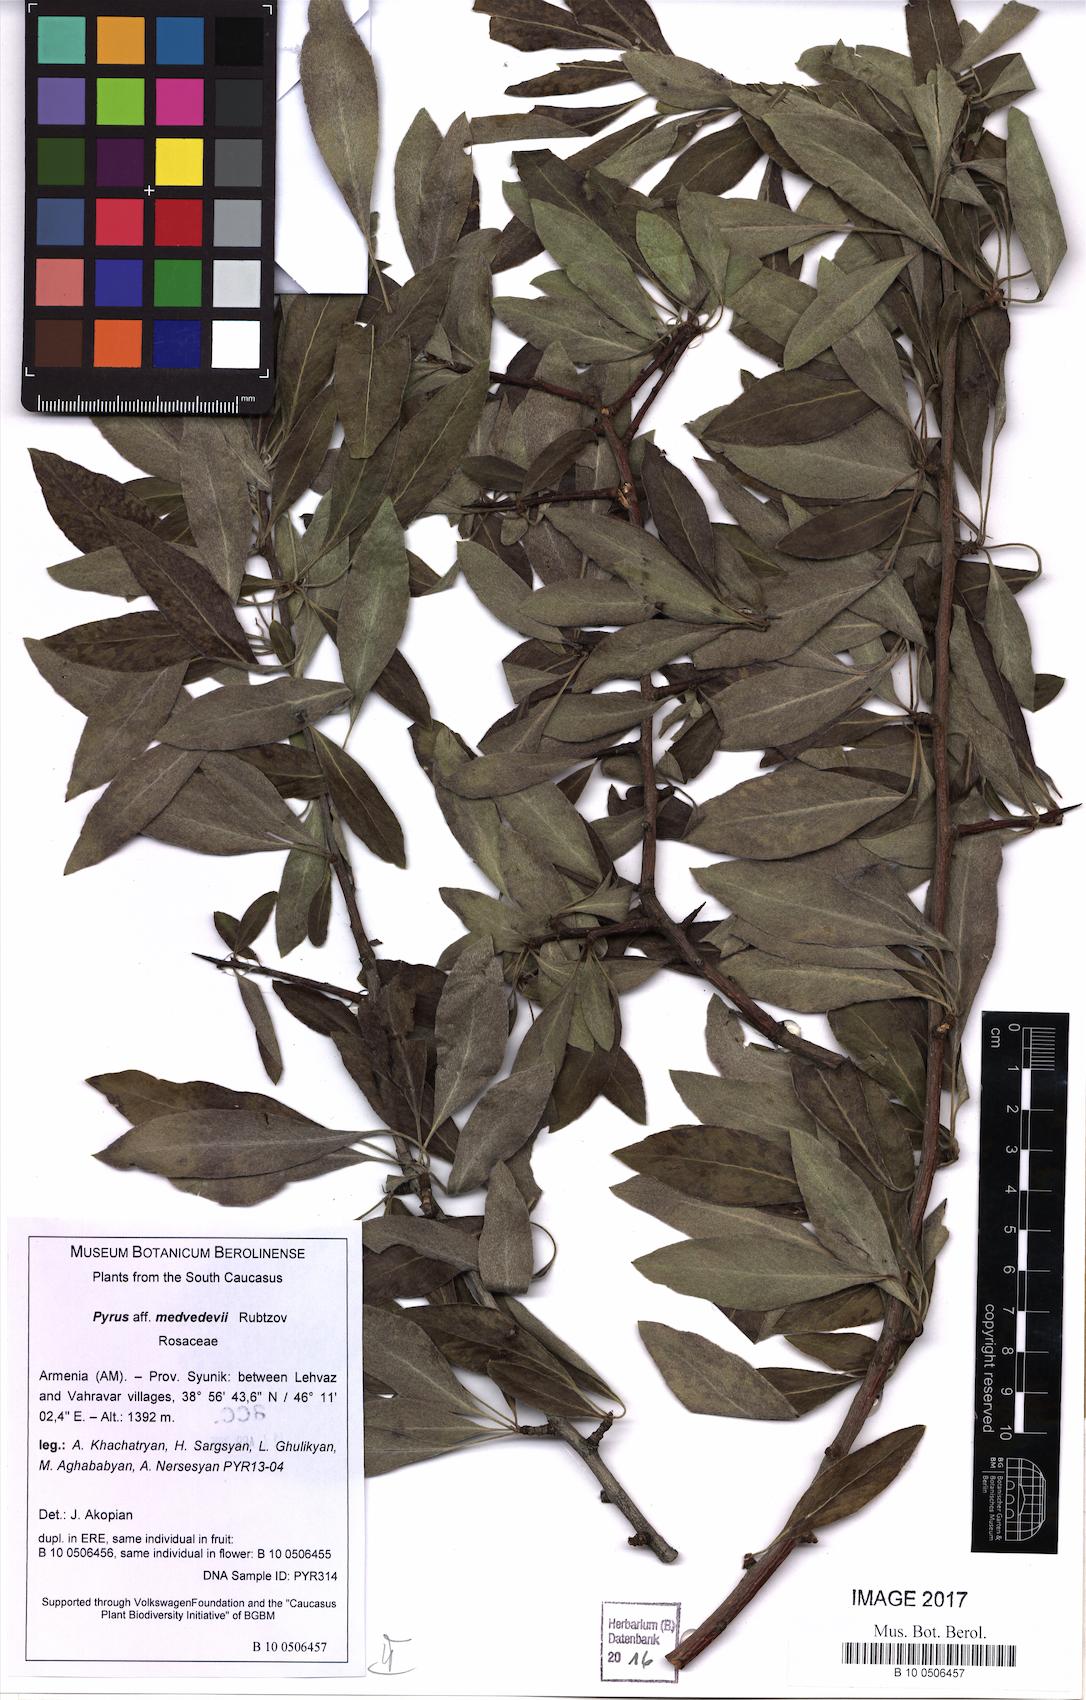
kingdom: Plantae
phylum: Tracheophyta
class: Magnoliopsida
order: Rosales
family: Rosaceae
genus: Pyrus
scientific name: Pyrus salicifolia
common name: Willow-leaved pear
